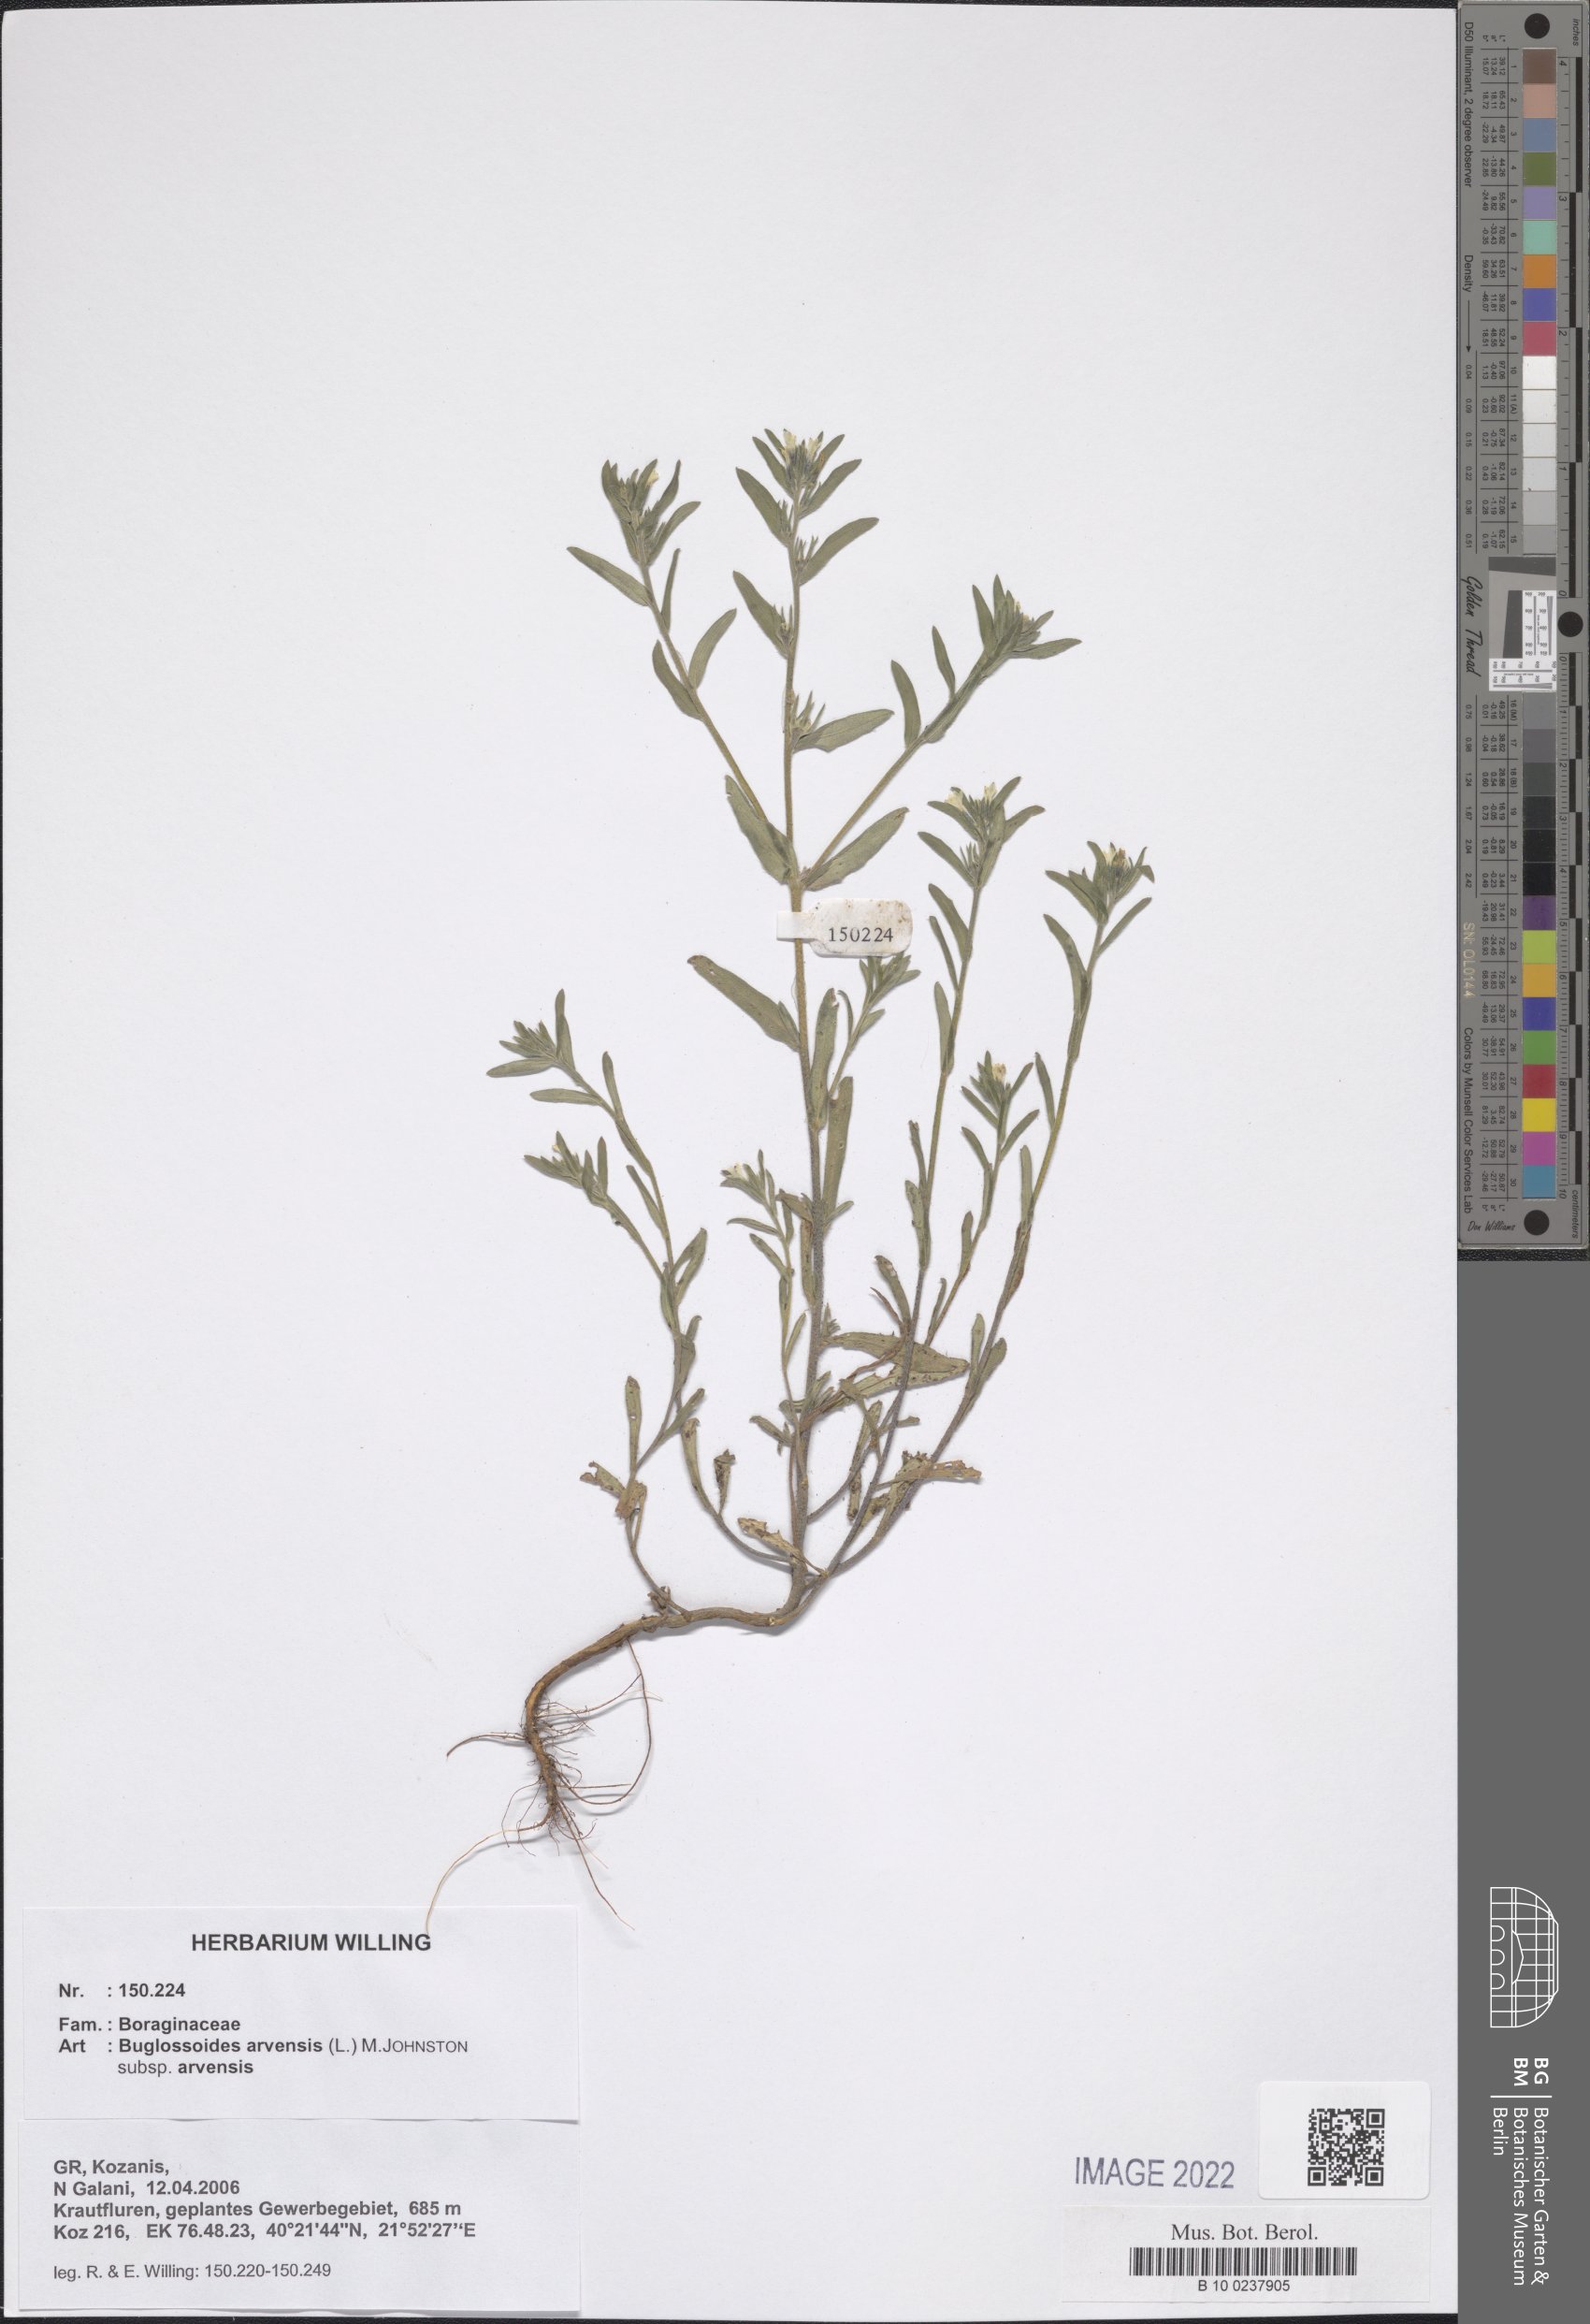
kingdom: Plantae
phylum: Tracheophyta
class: Magnoliopsida
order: Boraginales
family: Boraginaceae
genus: Buglossoides
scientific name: Buglossoides arvensis
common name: Corn gromwell
